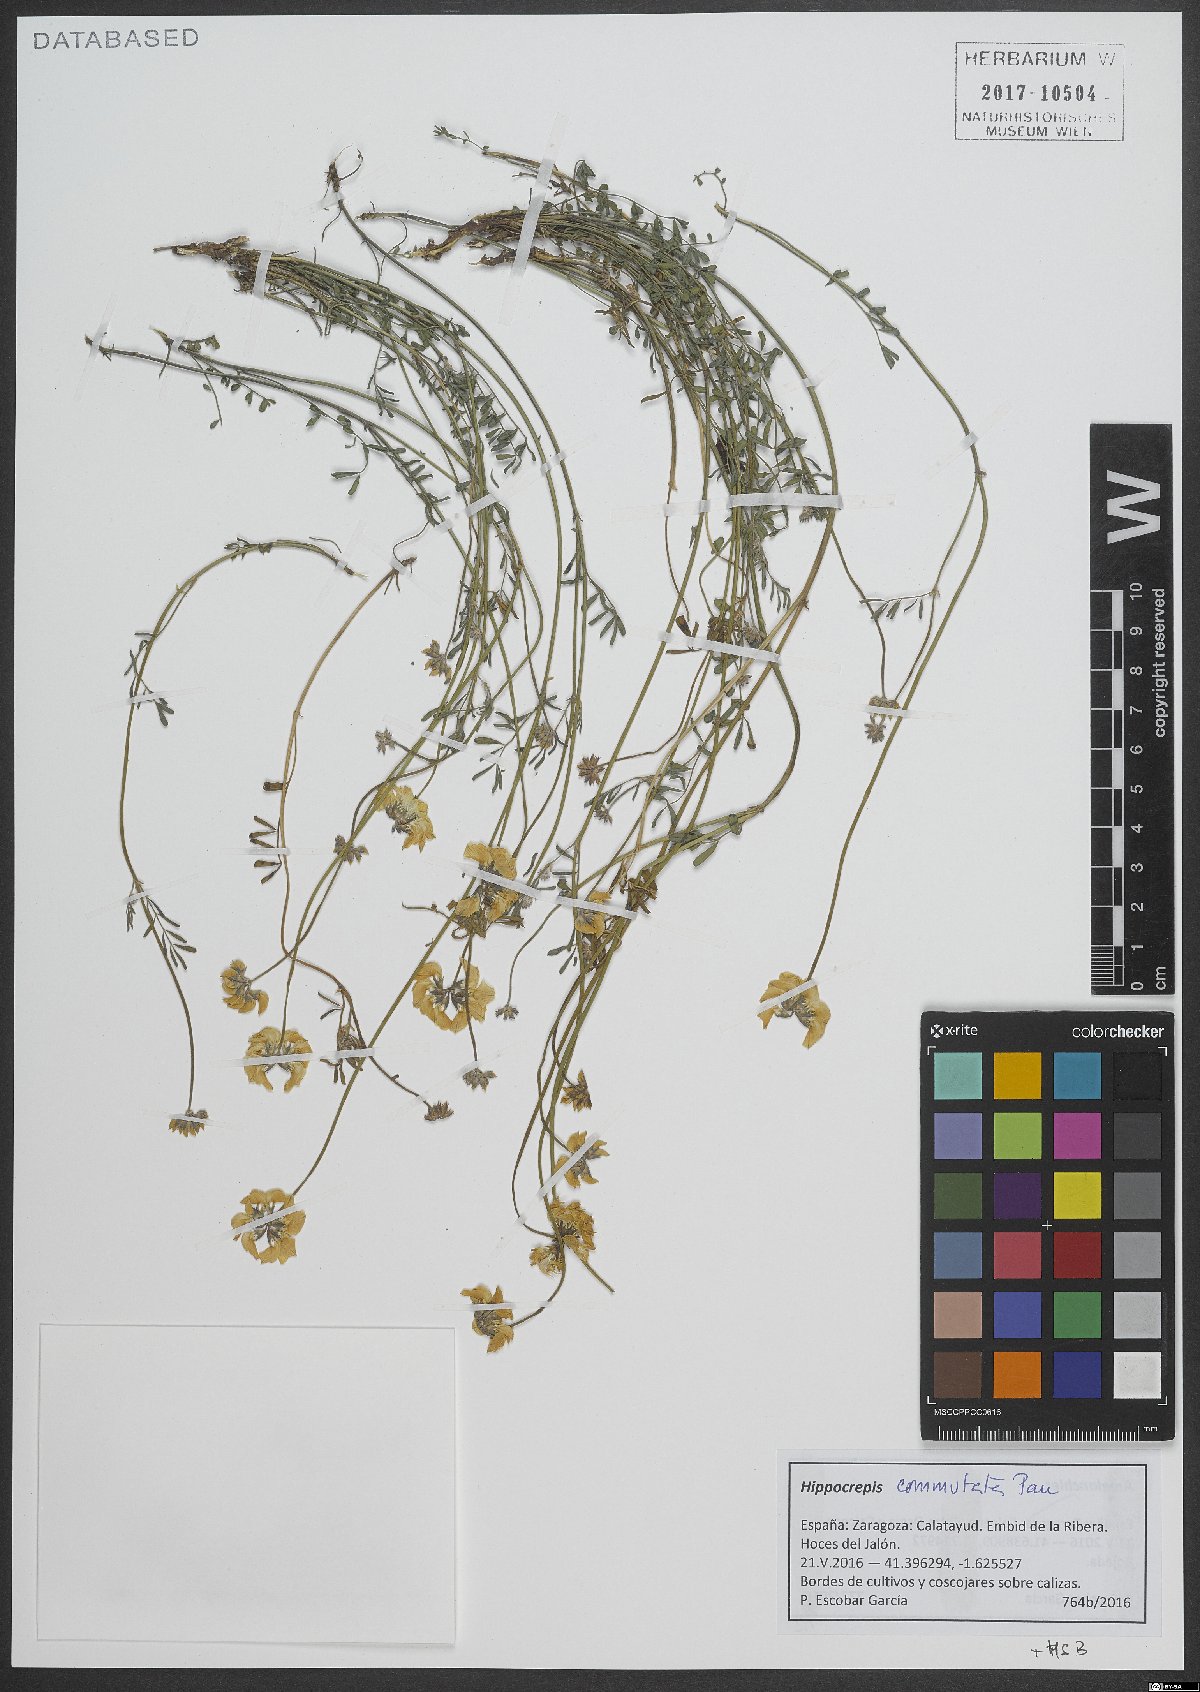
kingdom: Plantae
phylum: Tracheophyta
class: Magnoliopsida
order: Fabales
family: Fabaceae
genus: Hippocrepis
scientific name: Hippocrepis scabra
